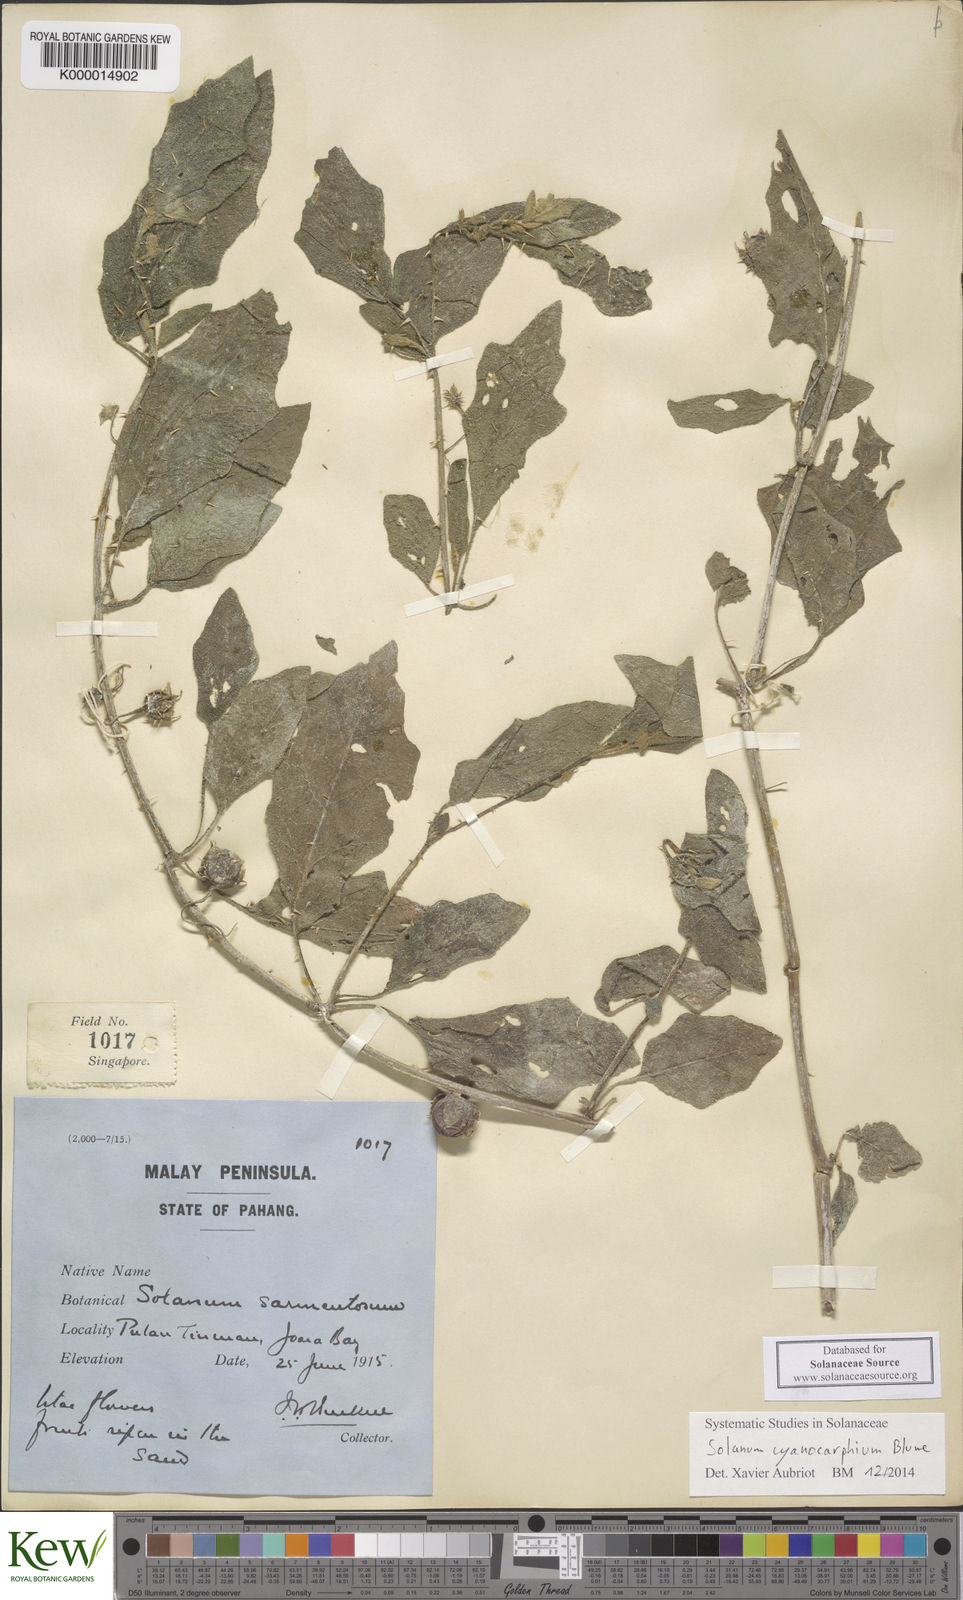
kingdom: Plantae
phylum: Tracheophyta
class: Magnoliopsida
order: Solanales
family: Solanaceae
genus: Solanum
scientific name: Solanum cyanocarphium
